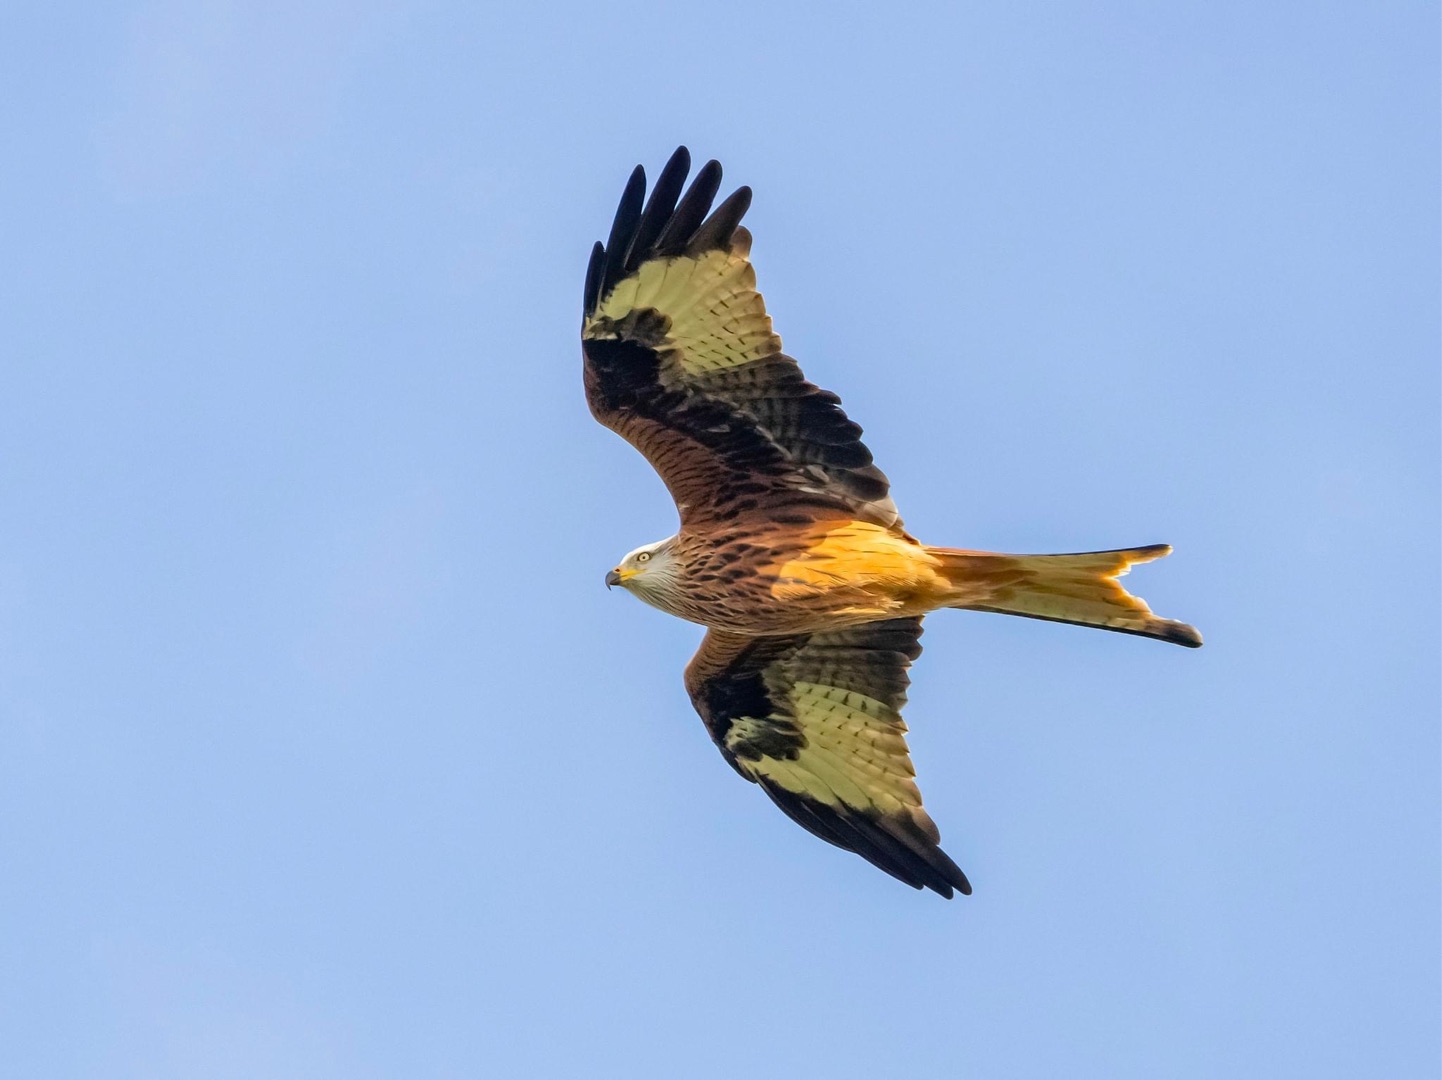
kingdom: Animalia
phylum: Chordata
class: Aves
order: Accipitriformes
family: Accipitridae
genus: Milvus
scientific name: Milvus milvus
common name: Rød glente
